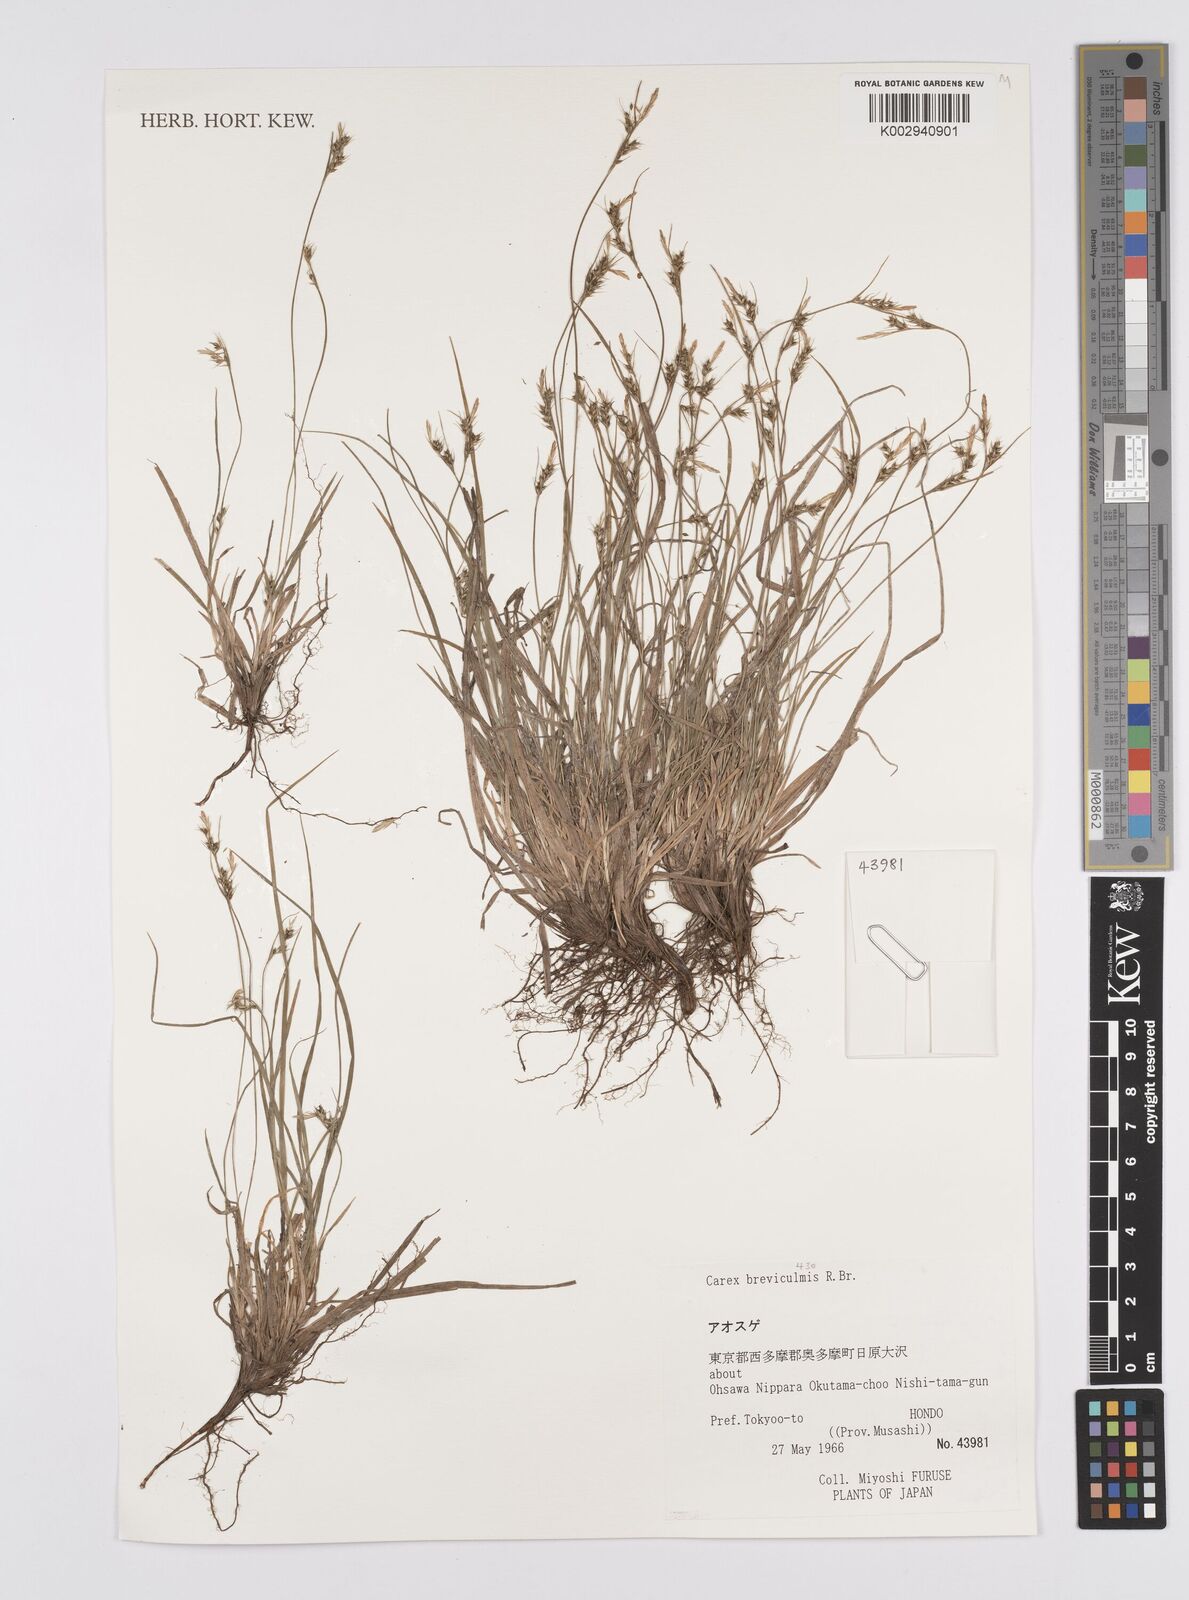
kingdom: Plantae
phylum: Tracheophyta
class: Liliopsida
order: Poales
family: Cyperaceae
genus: Carex
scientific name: Carex breviculmis
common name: Asian shortstem sedge
